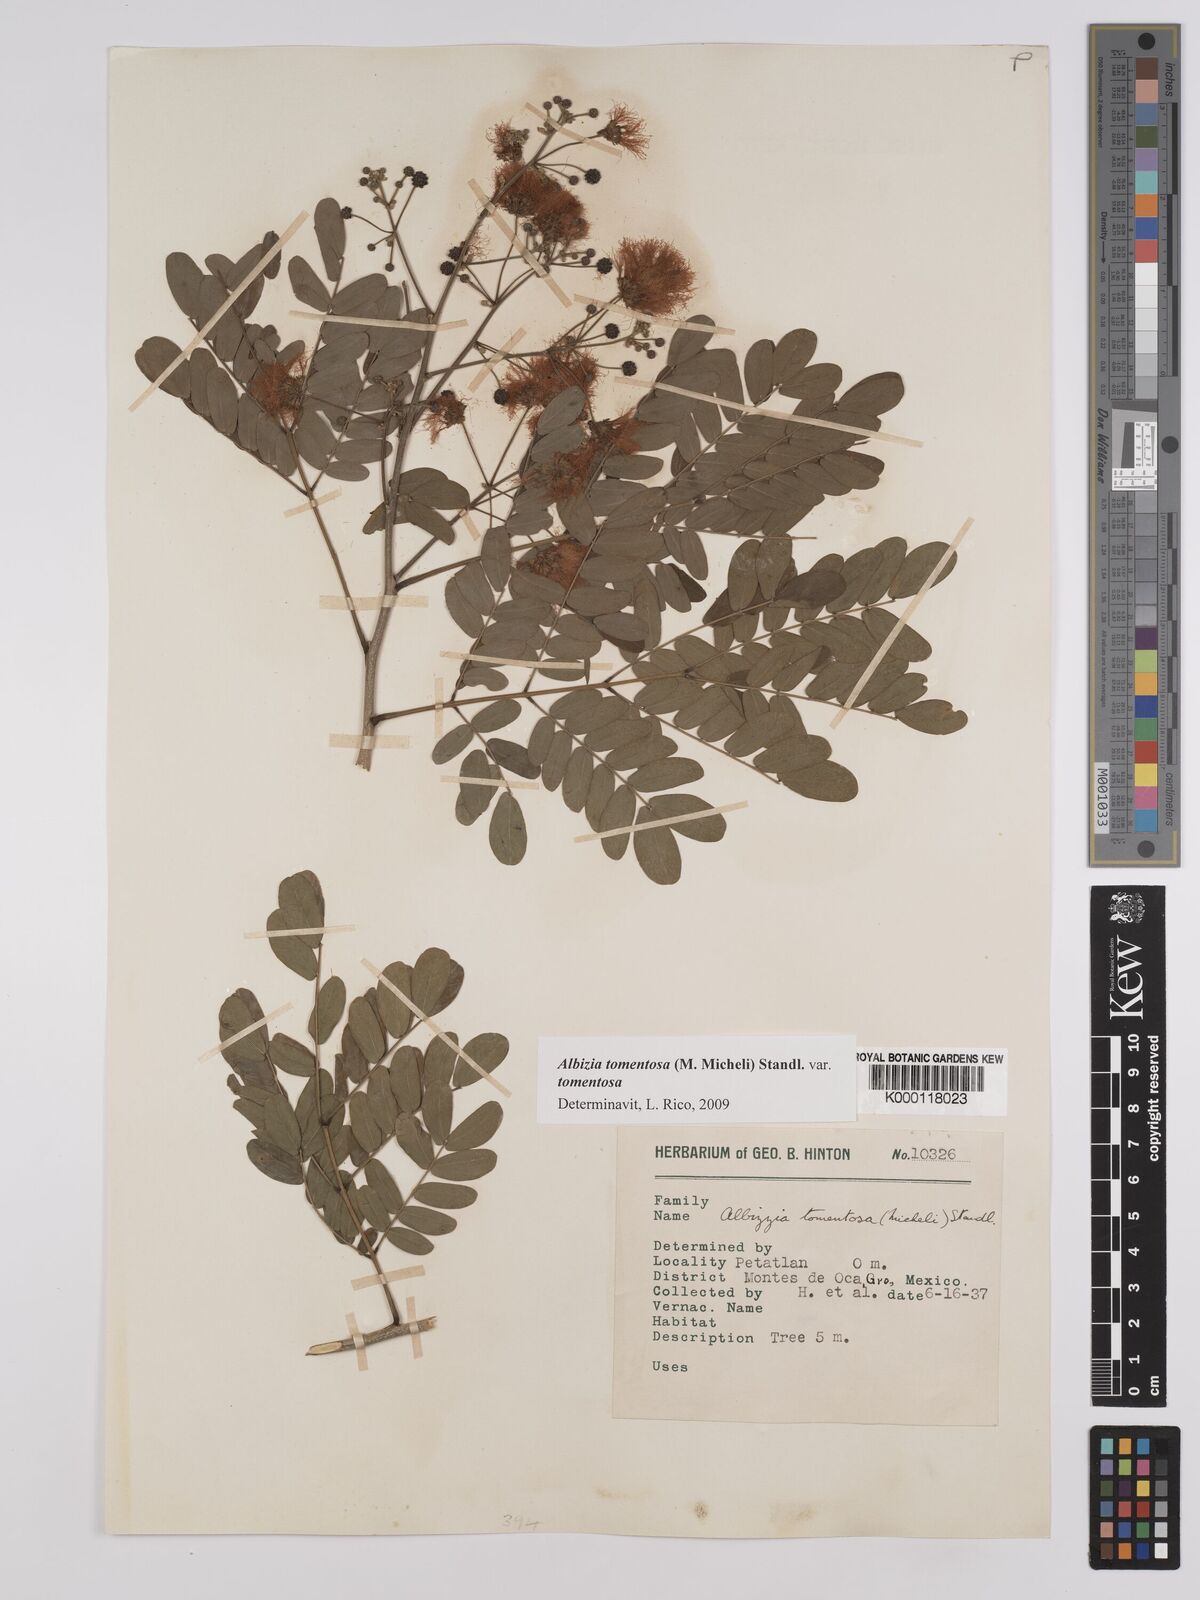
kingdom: Plantae
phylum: Tracheophyta
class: Magnoliopsida
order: Fabales
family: Fabaceae
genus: Albizia
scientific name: Albizia tomentosa
